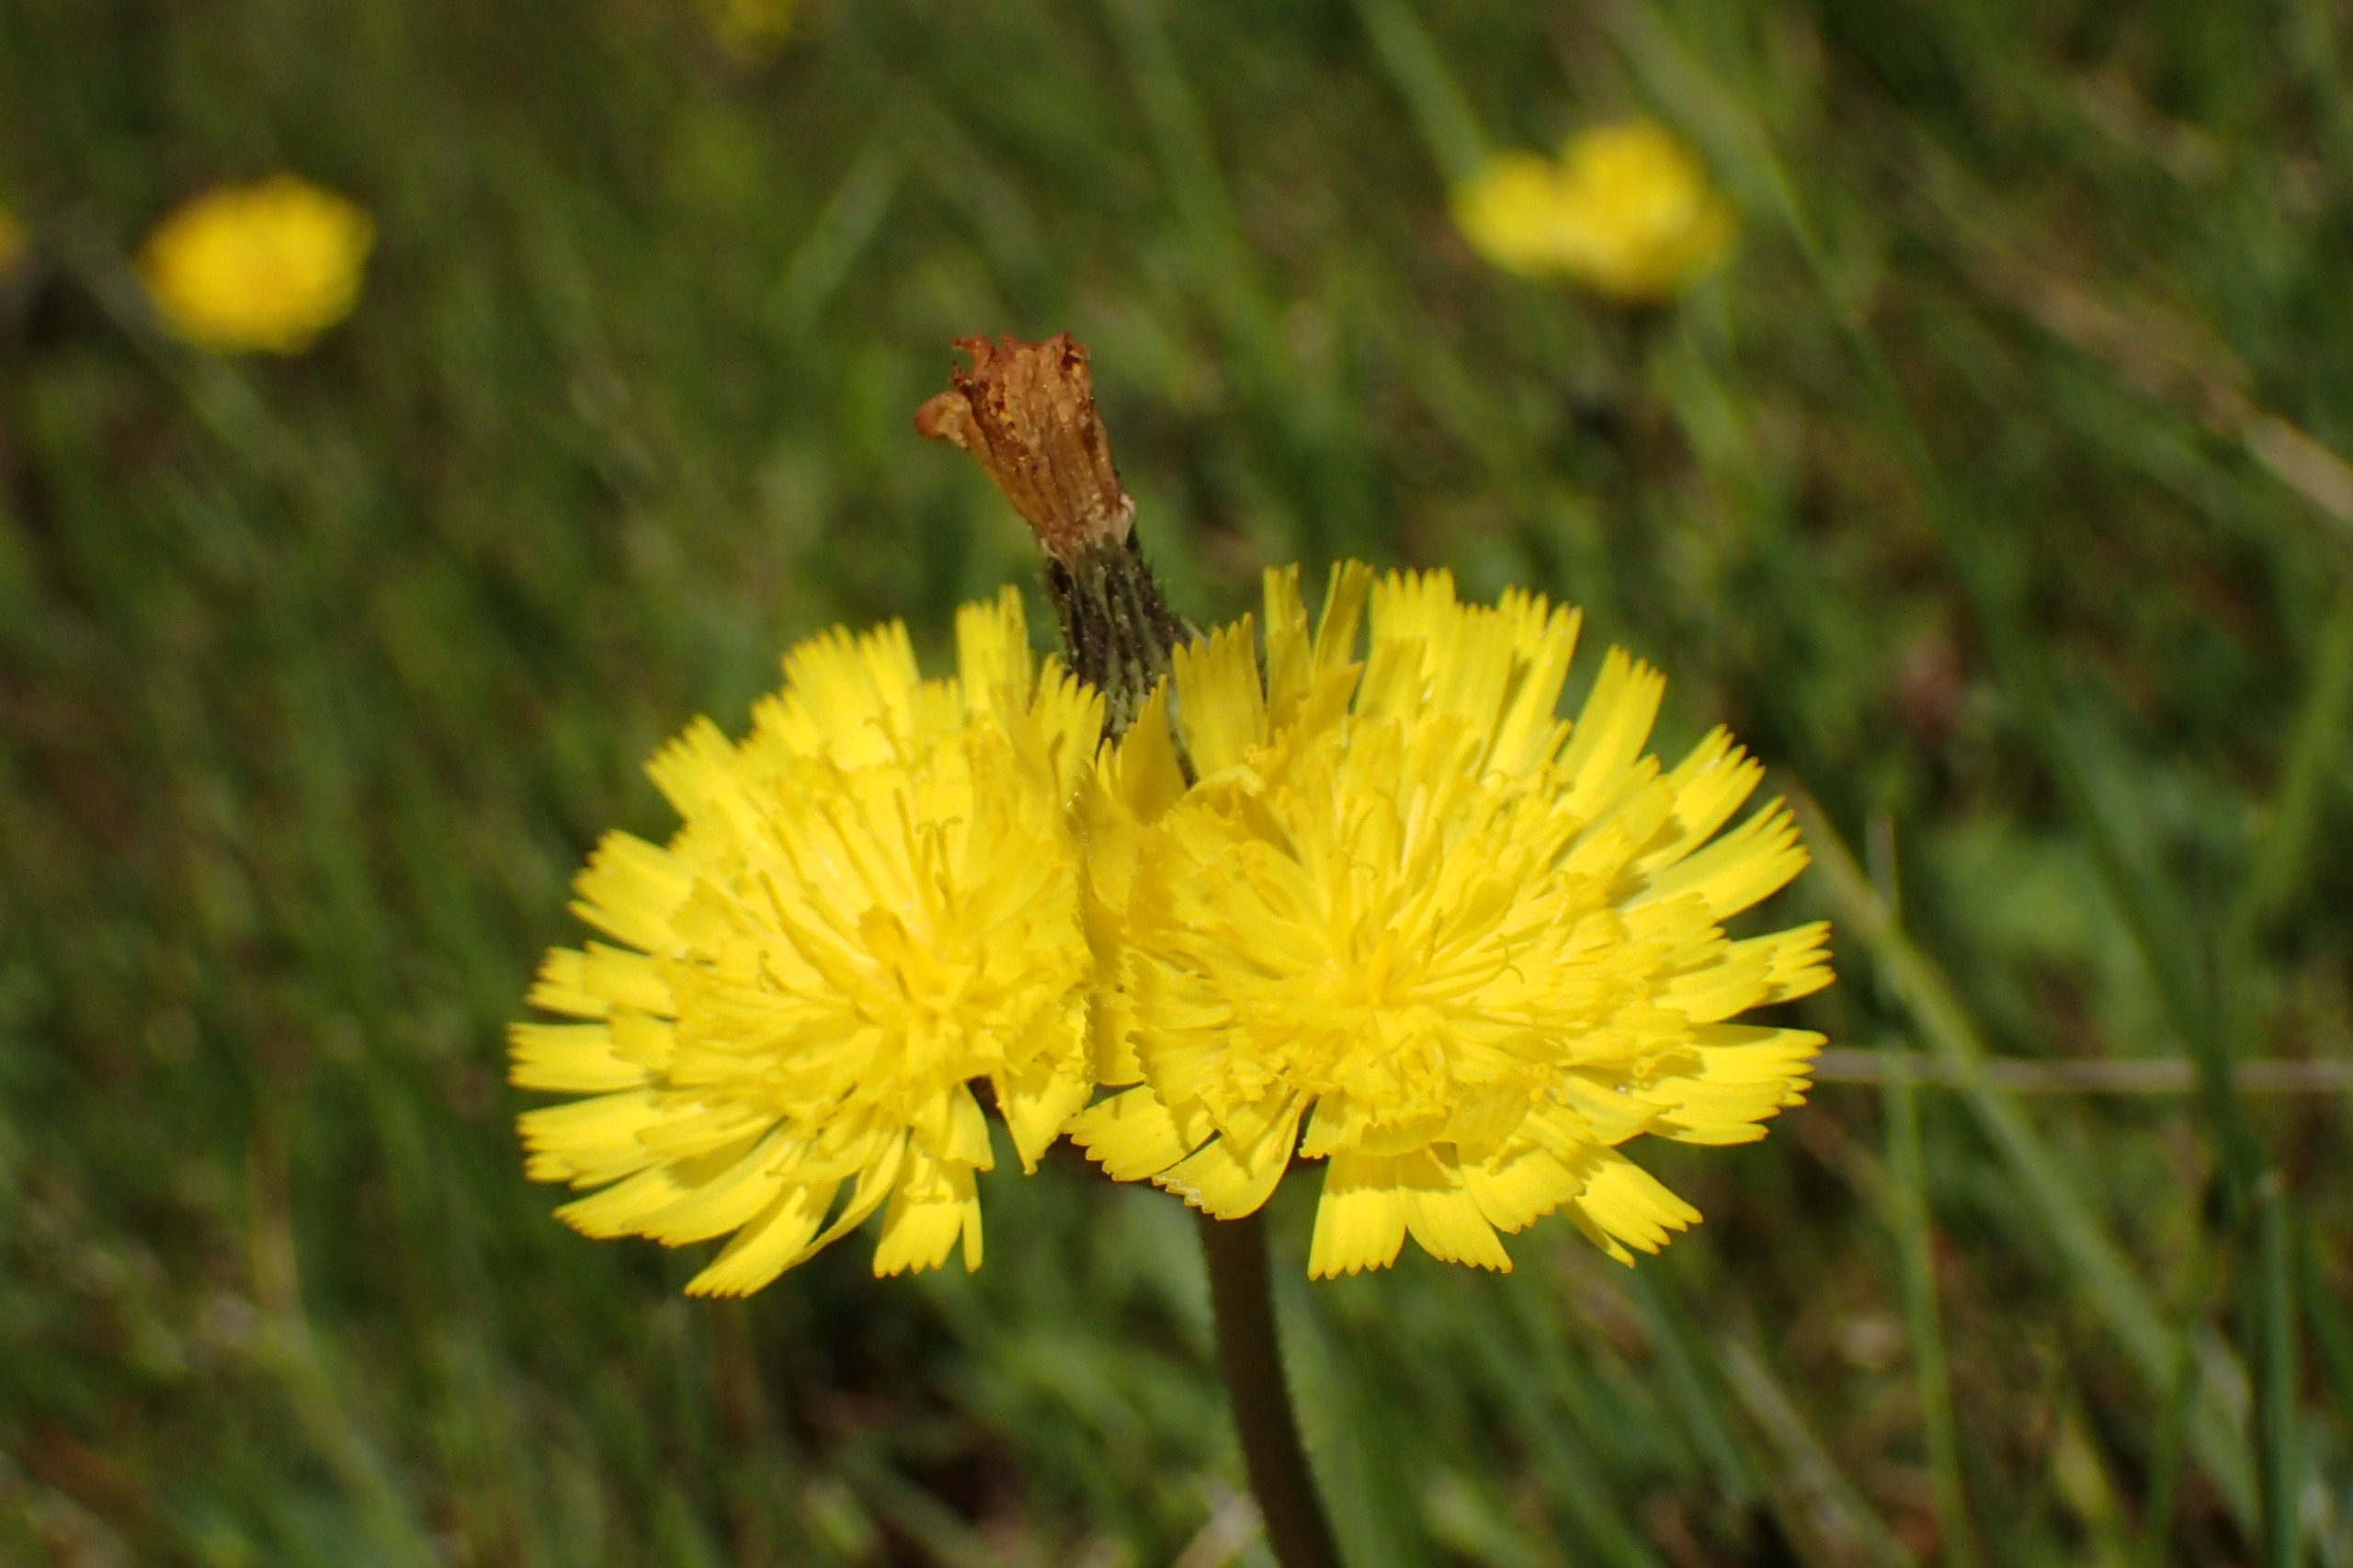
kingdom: Plantae
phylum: Tracheophyta
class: Magnoliopsida
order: Asterales
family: Asteraceae
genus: Pilosella
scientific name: Pilosella lactucella
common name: Lancetbladet høgeurt
